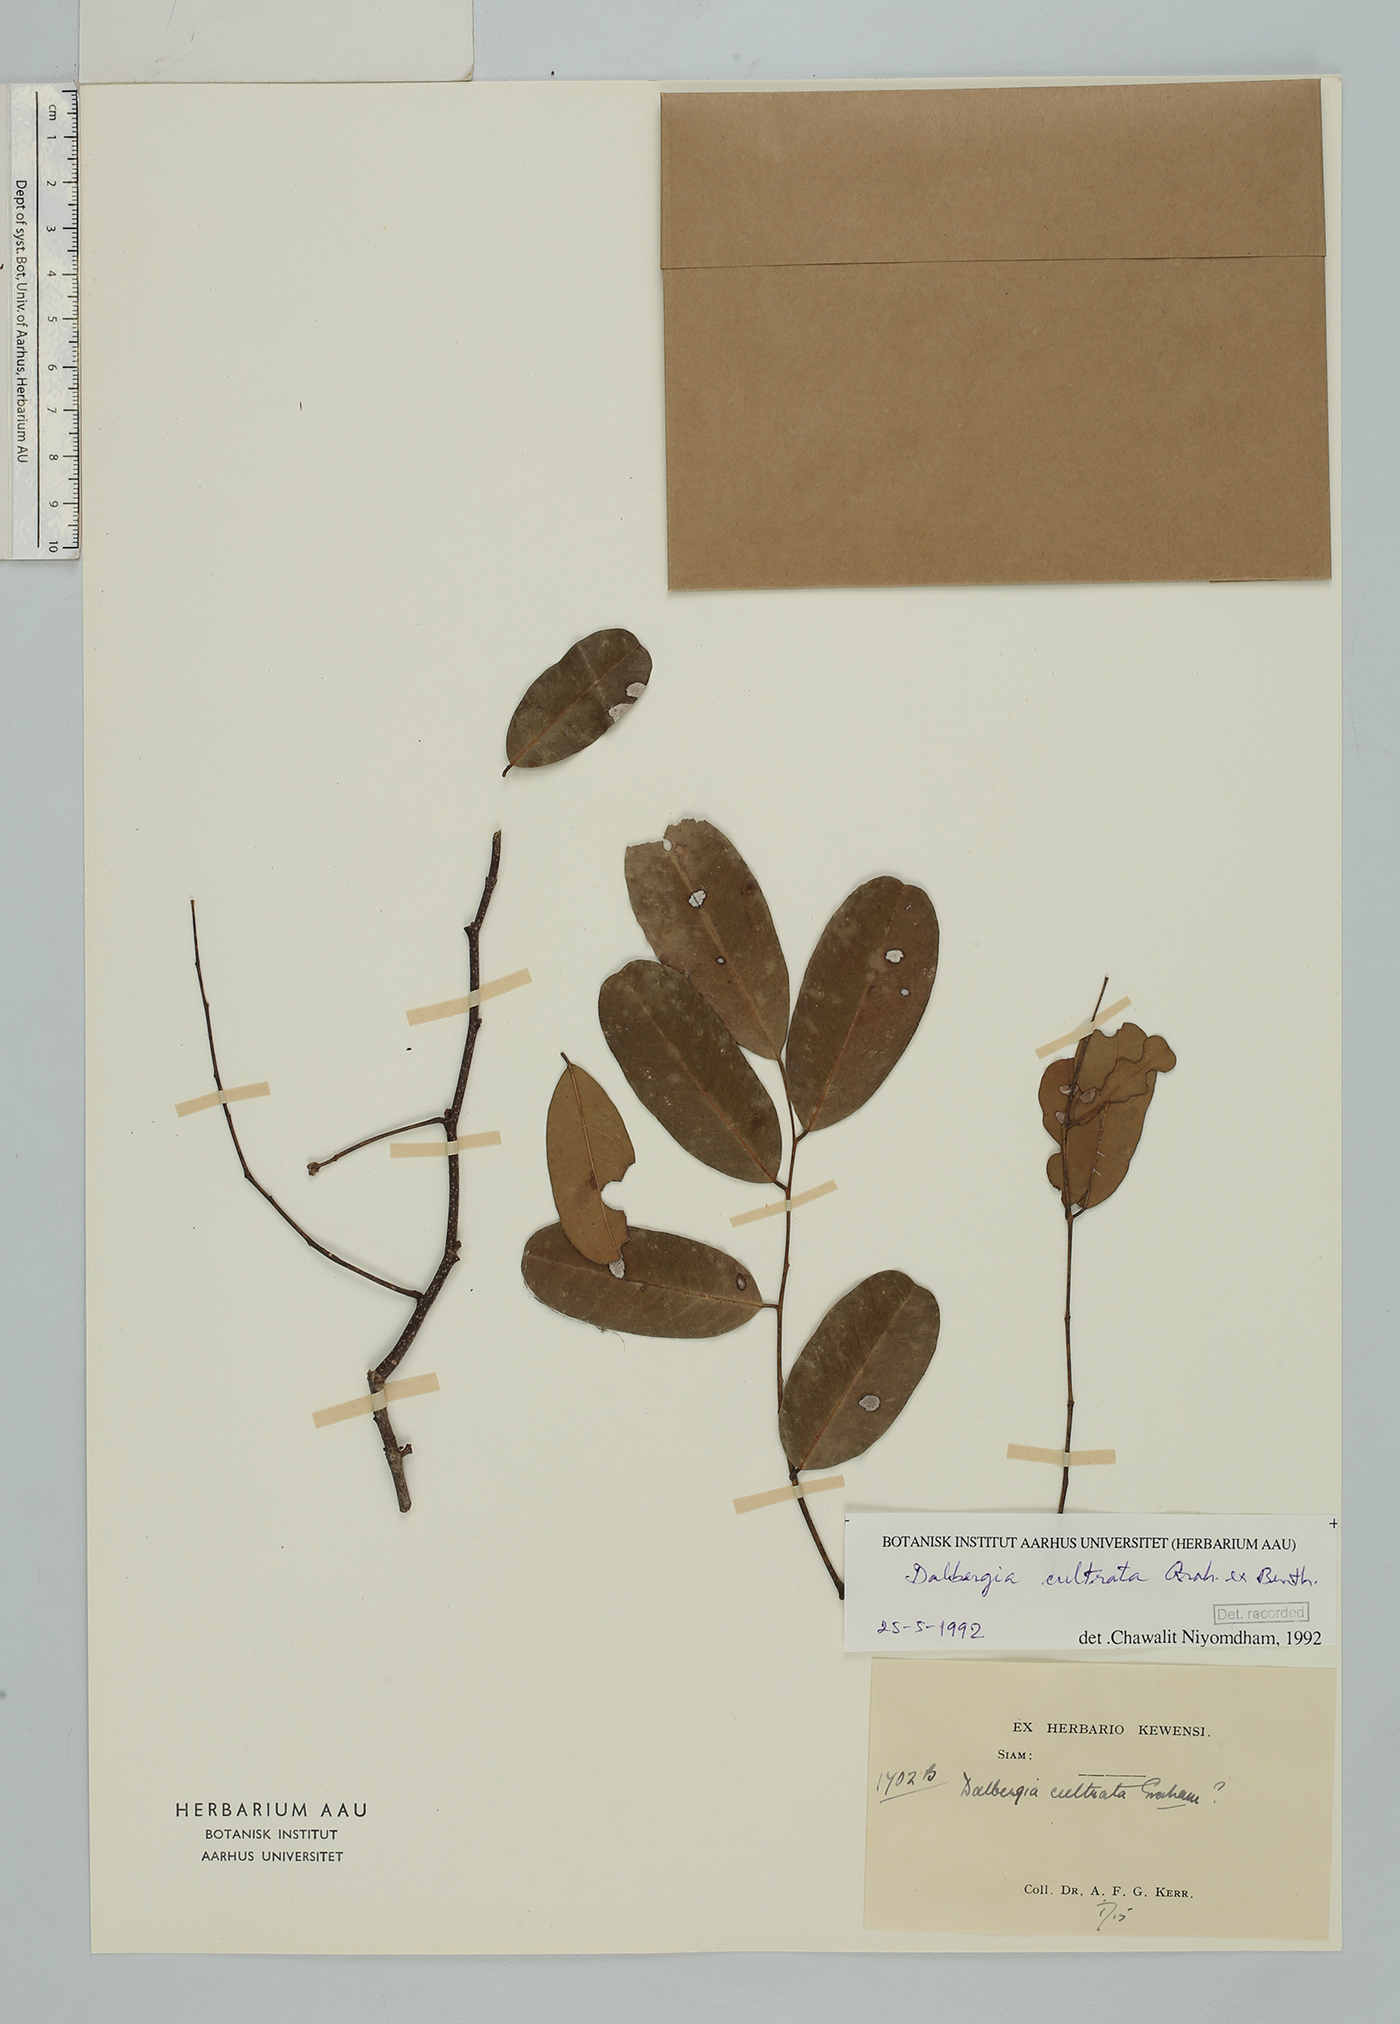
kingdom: Plantae
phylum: Tracheophyta
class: Magnoliopsida
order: Fabales
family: Fabaceae
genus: Dalbergia
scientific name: Dalbergia cultrata
